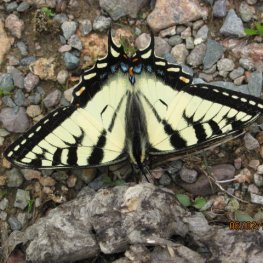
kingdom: Animalia
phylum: Arthropoda
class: Insecta
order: Lepidoptera
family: Papilionidae
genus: Pterourus
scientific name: Pterourus canadensis
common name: Canadian Tiger Swallowtail
